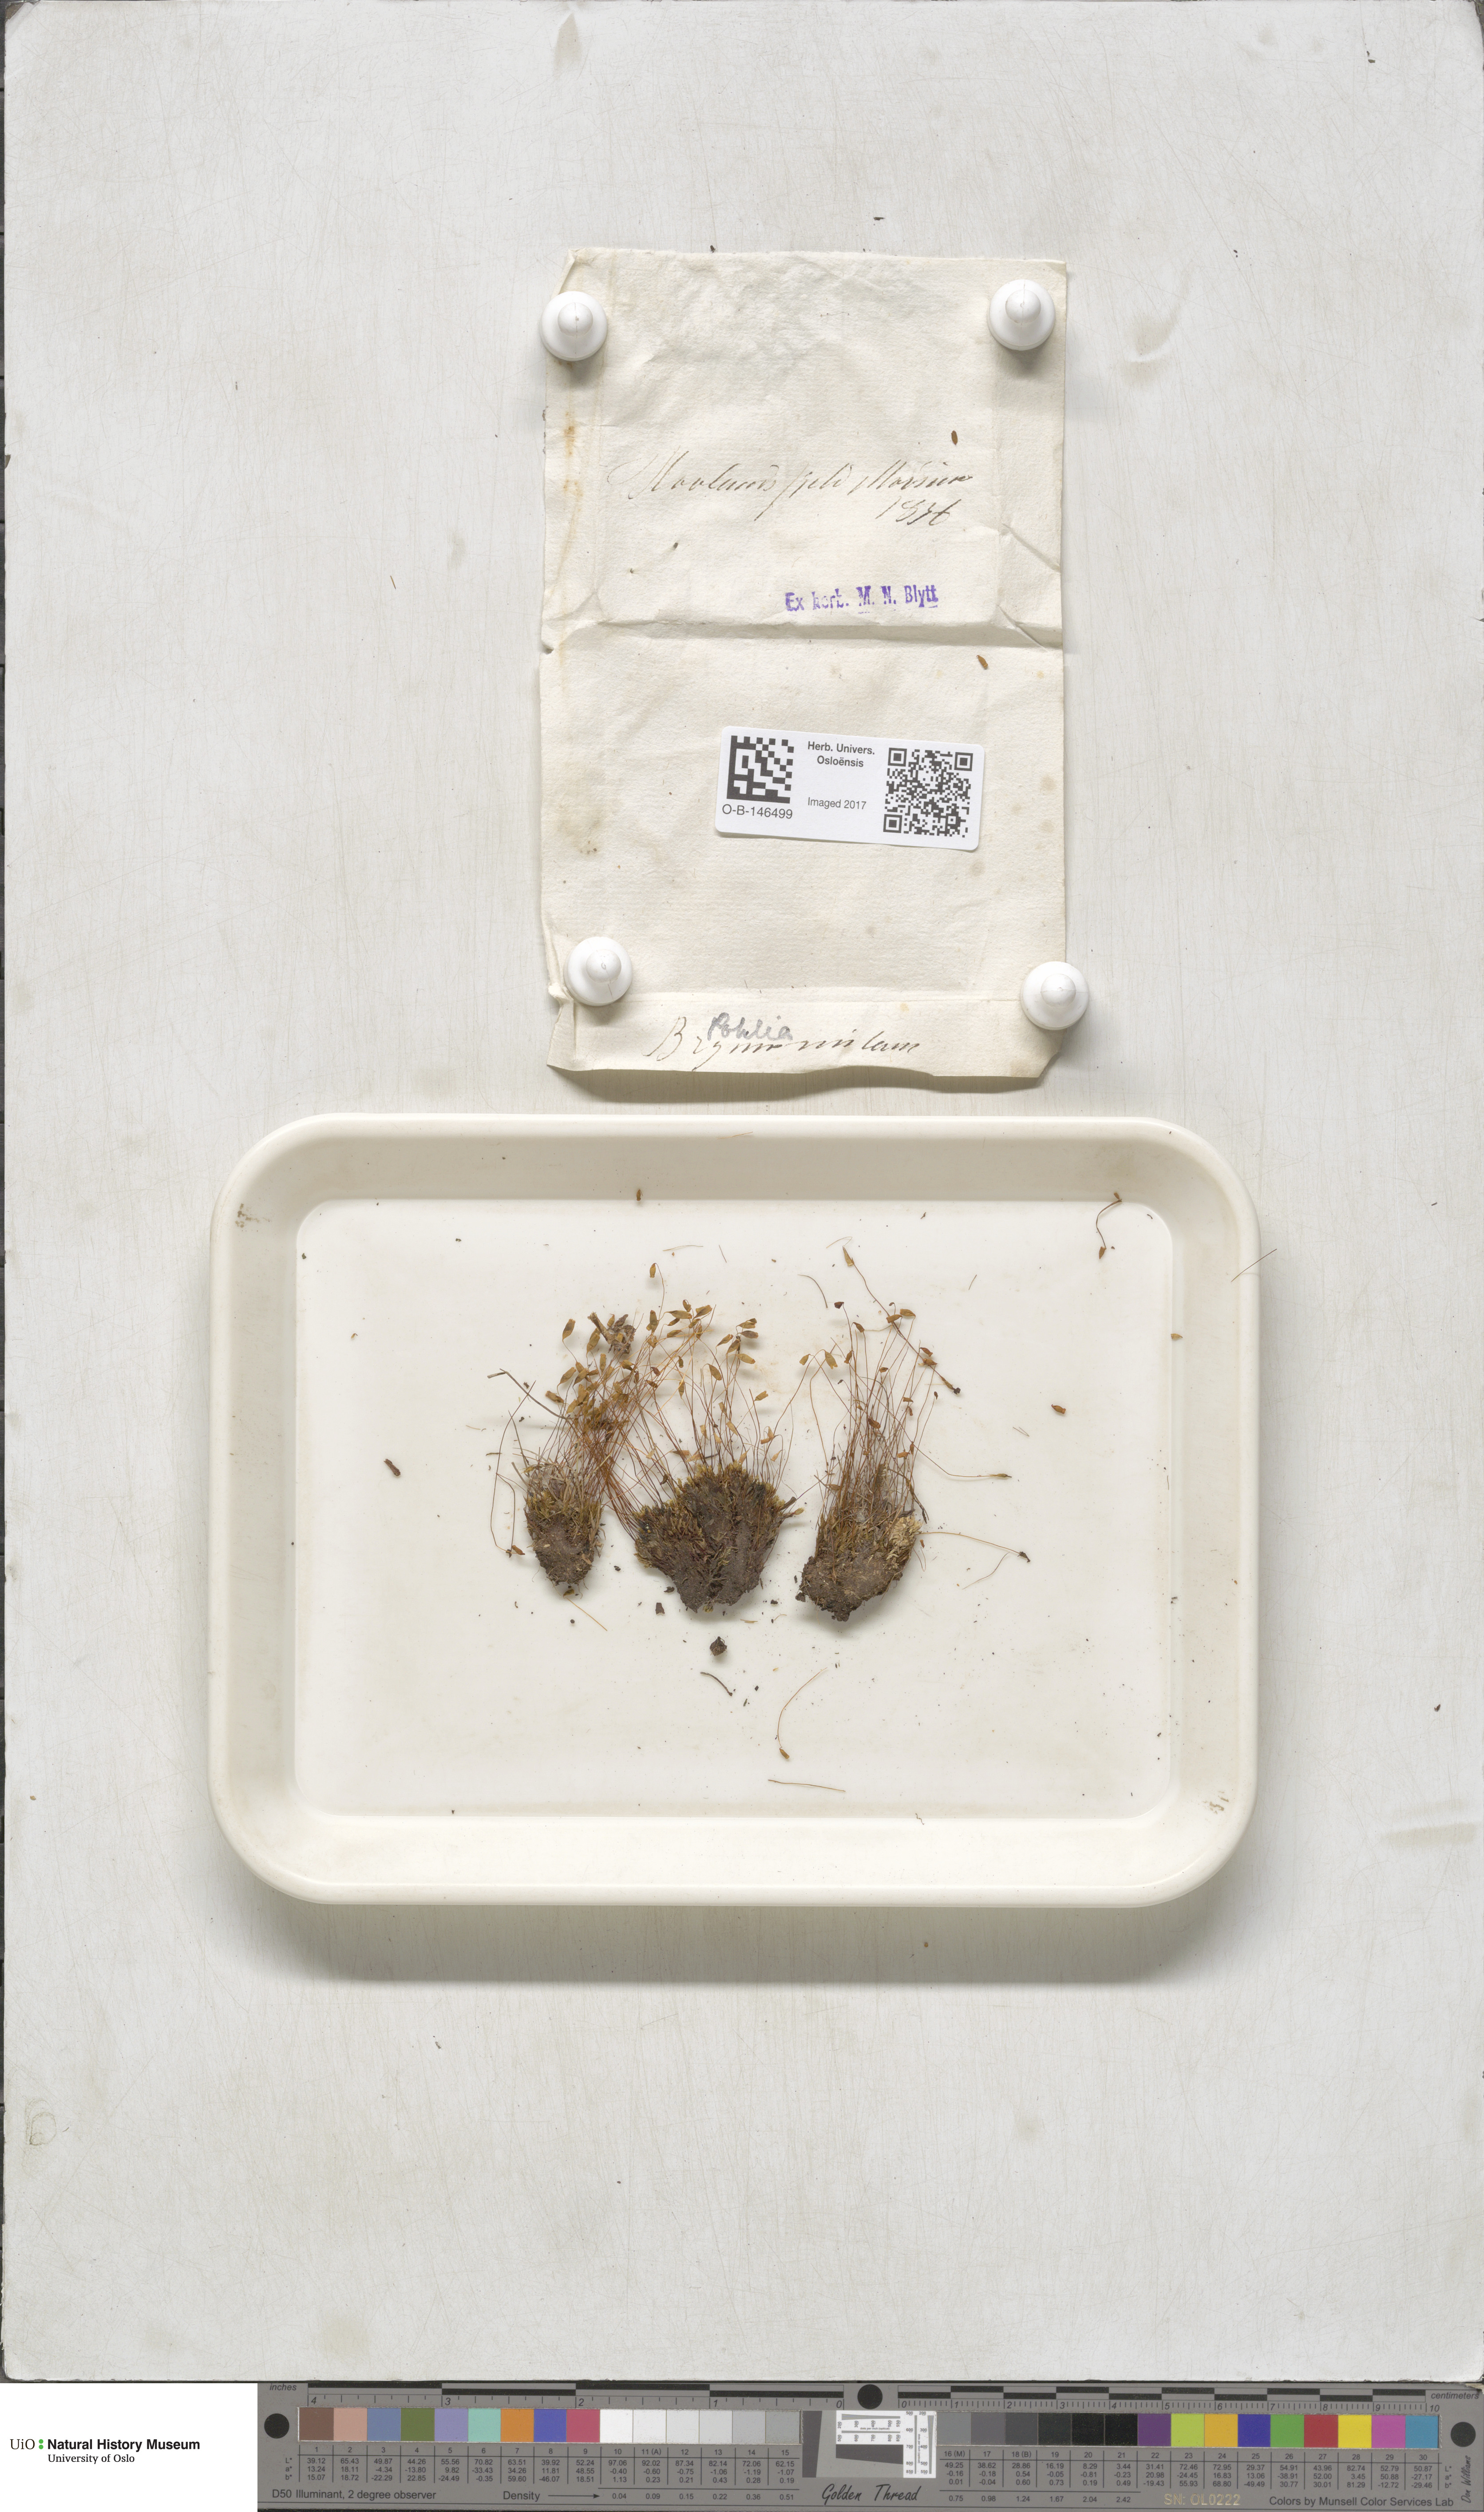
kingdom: Plantae
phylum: Bryophyta
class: Bryopsida
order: Bryales
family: Mniaceae
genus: Pohlia
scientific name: Pohlia nutans
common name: Nodding thread-moss
